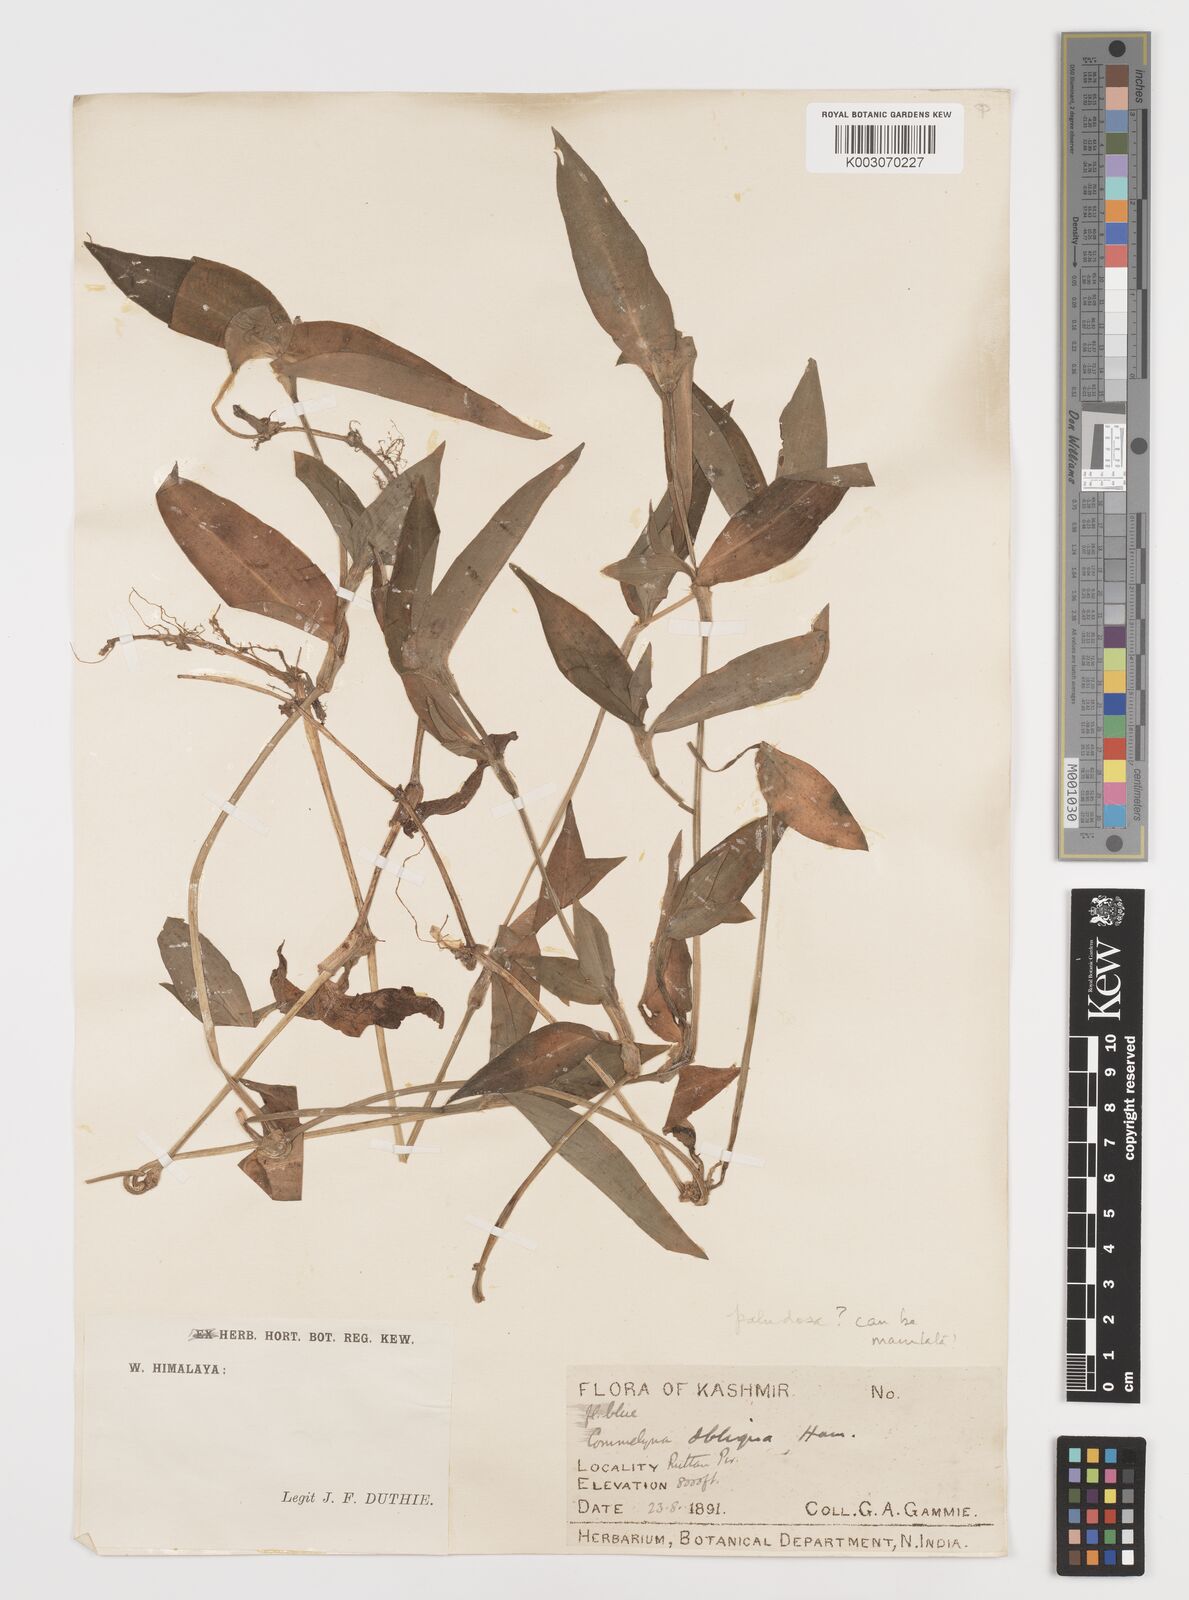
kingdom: Plantae
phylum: Tracheophyta
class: Liliopsida
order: Commelinales
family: Commelinaceae
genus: Commelina
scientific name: Commelina paludosa
